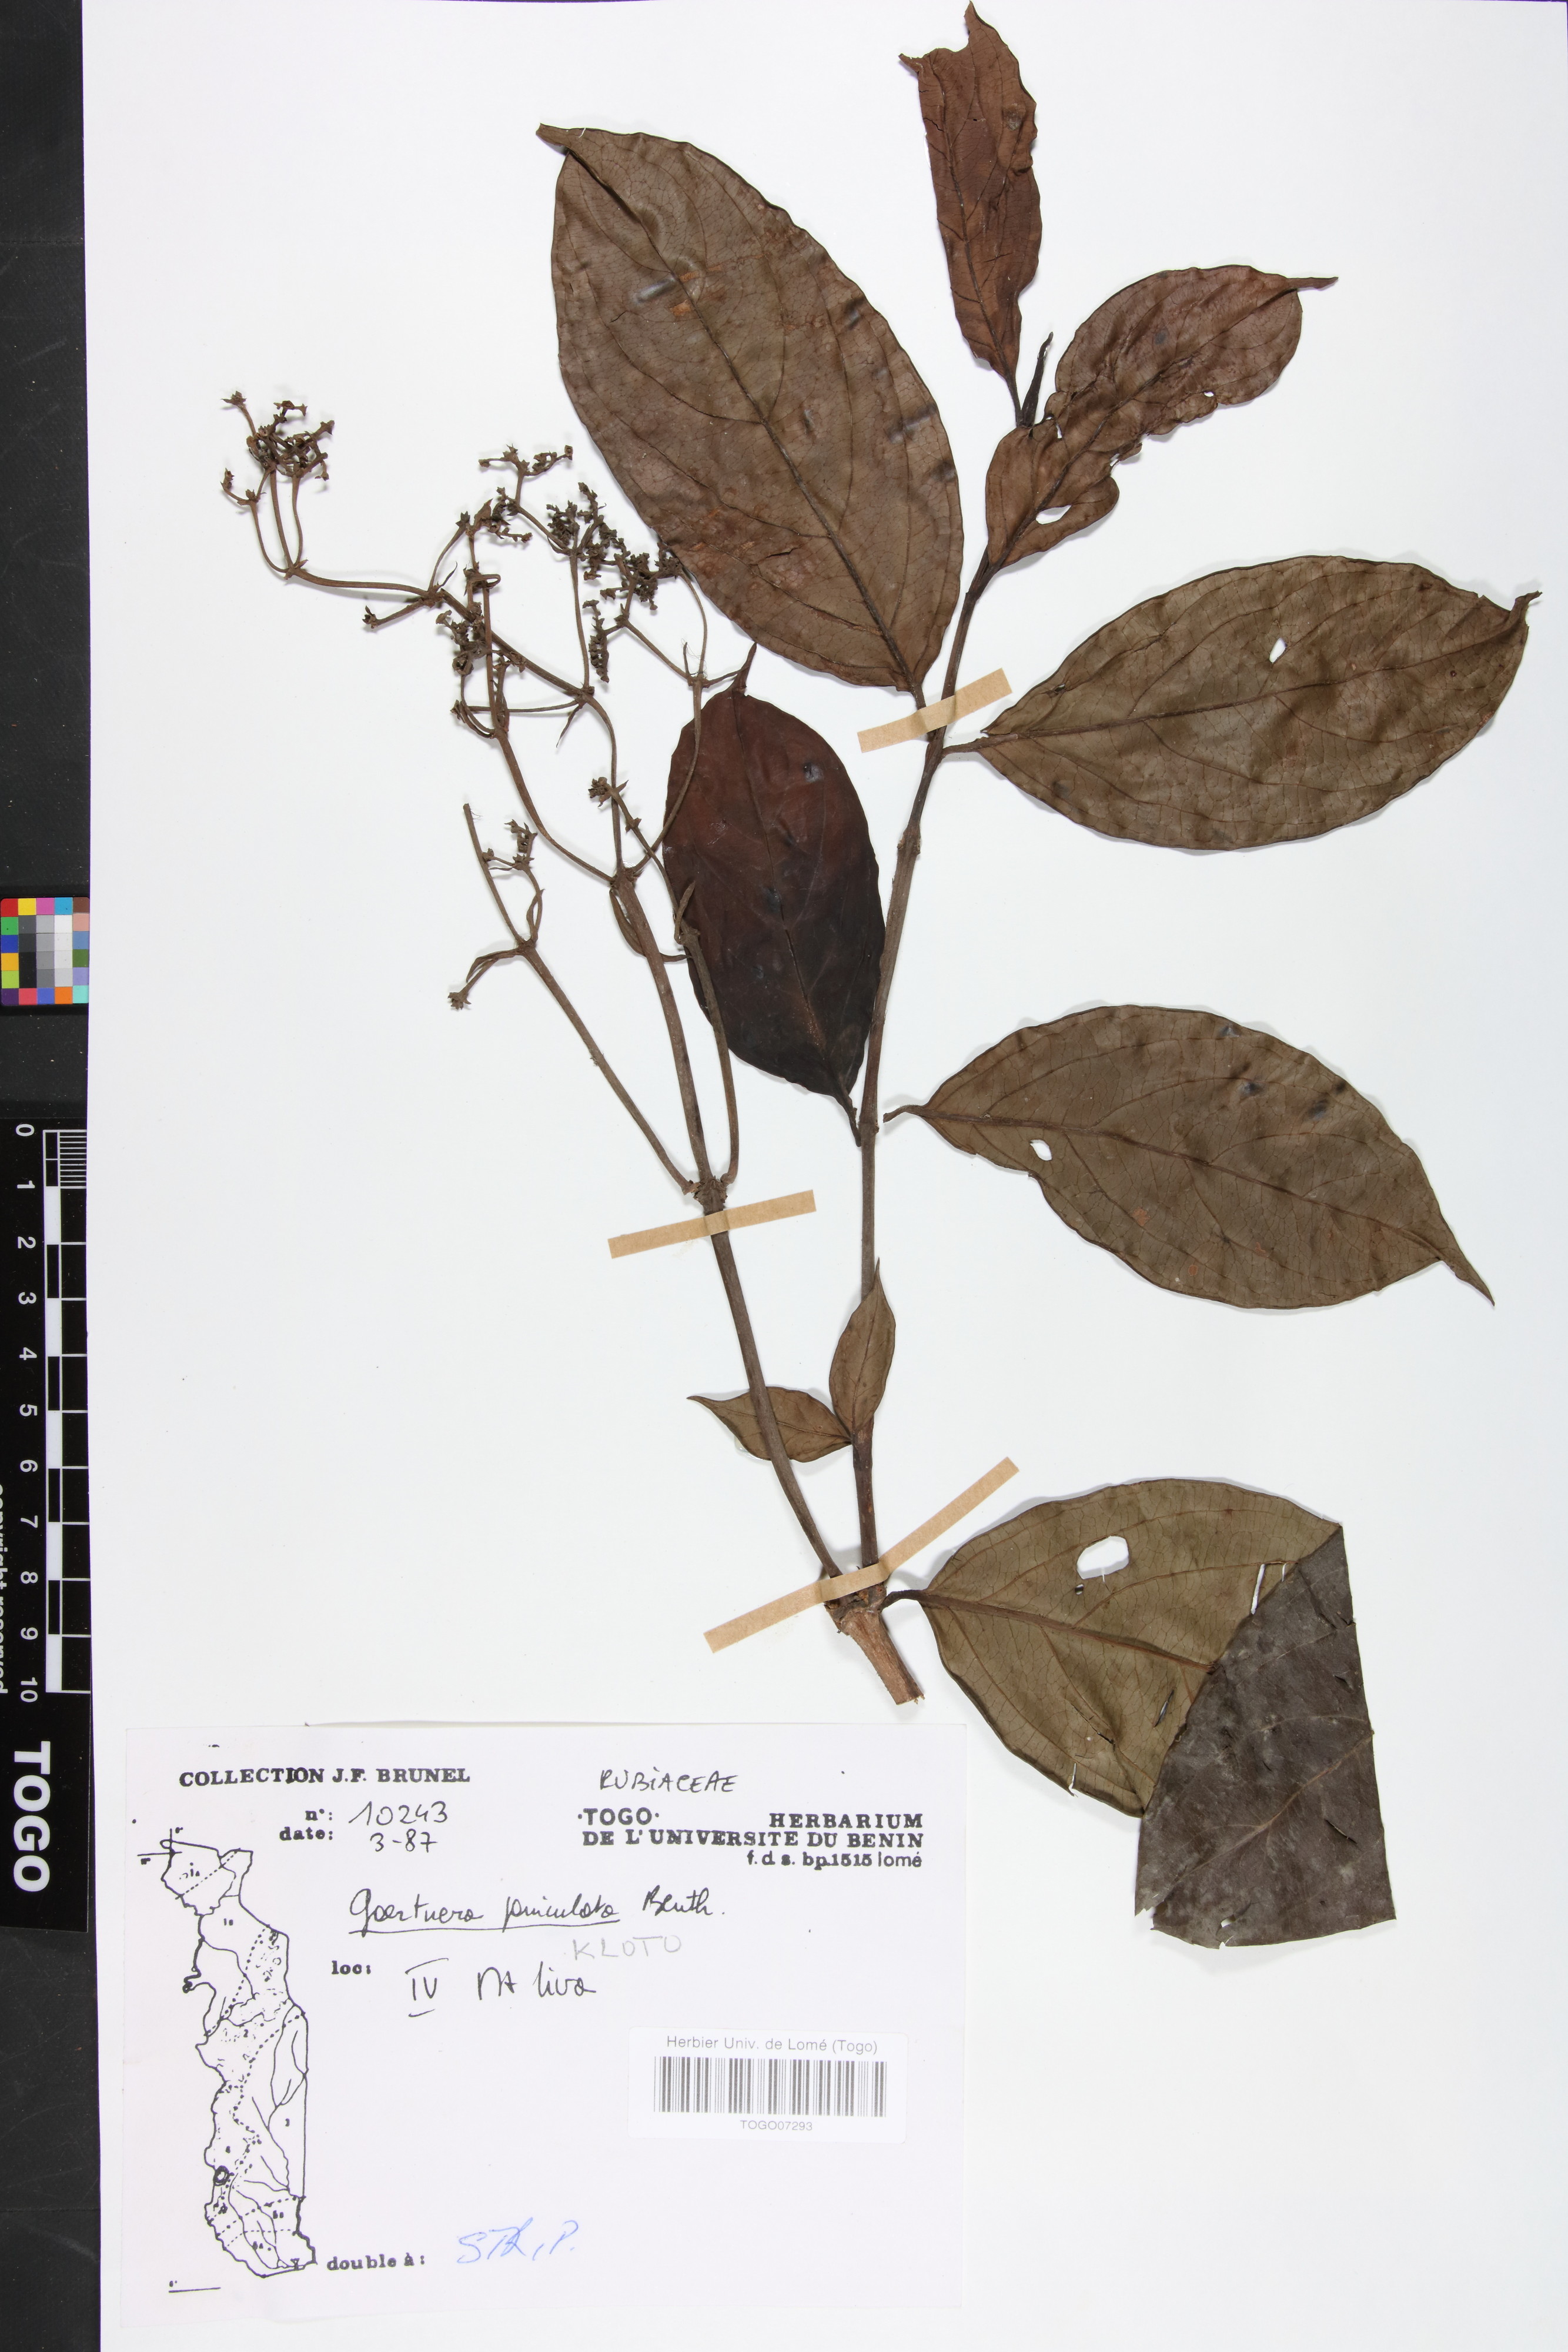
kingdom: Plantae
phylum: Tracheophyta
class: Magnoliopsida
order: Gentianales
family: Rubiaceae
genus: Gaertnera
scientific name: Gaertnera paniculata
